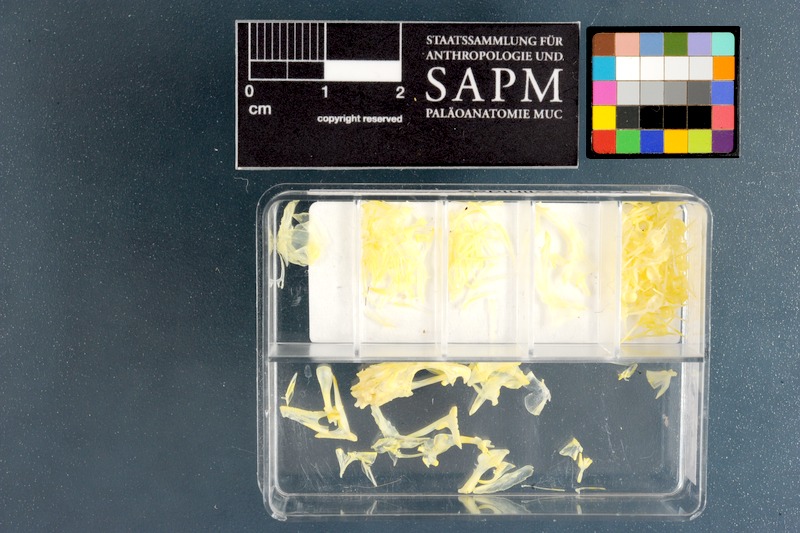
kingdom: Animalia
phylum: Chordata
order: Perciformes
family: Clinidae
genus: Cirrhibarbis
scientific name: Cirrhibarbis capensis
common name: Barbelled klipfish
